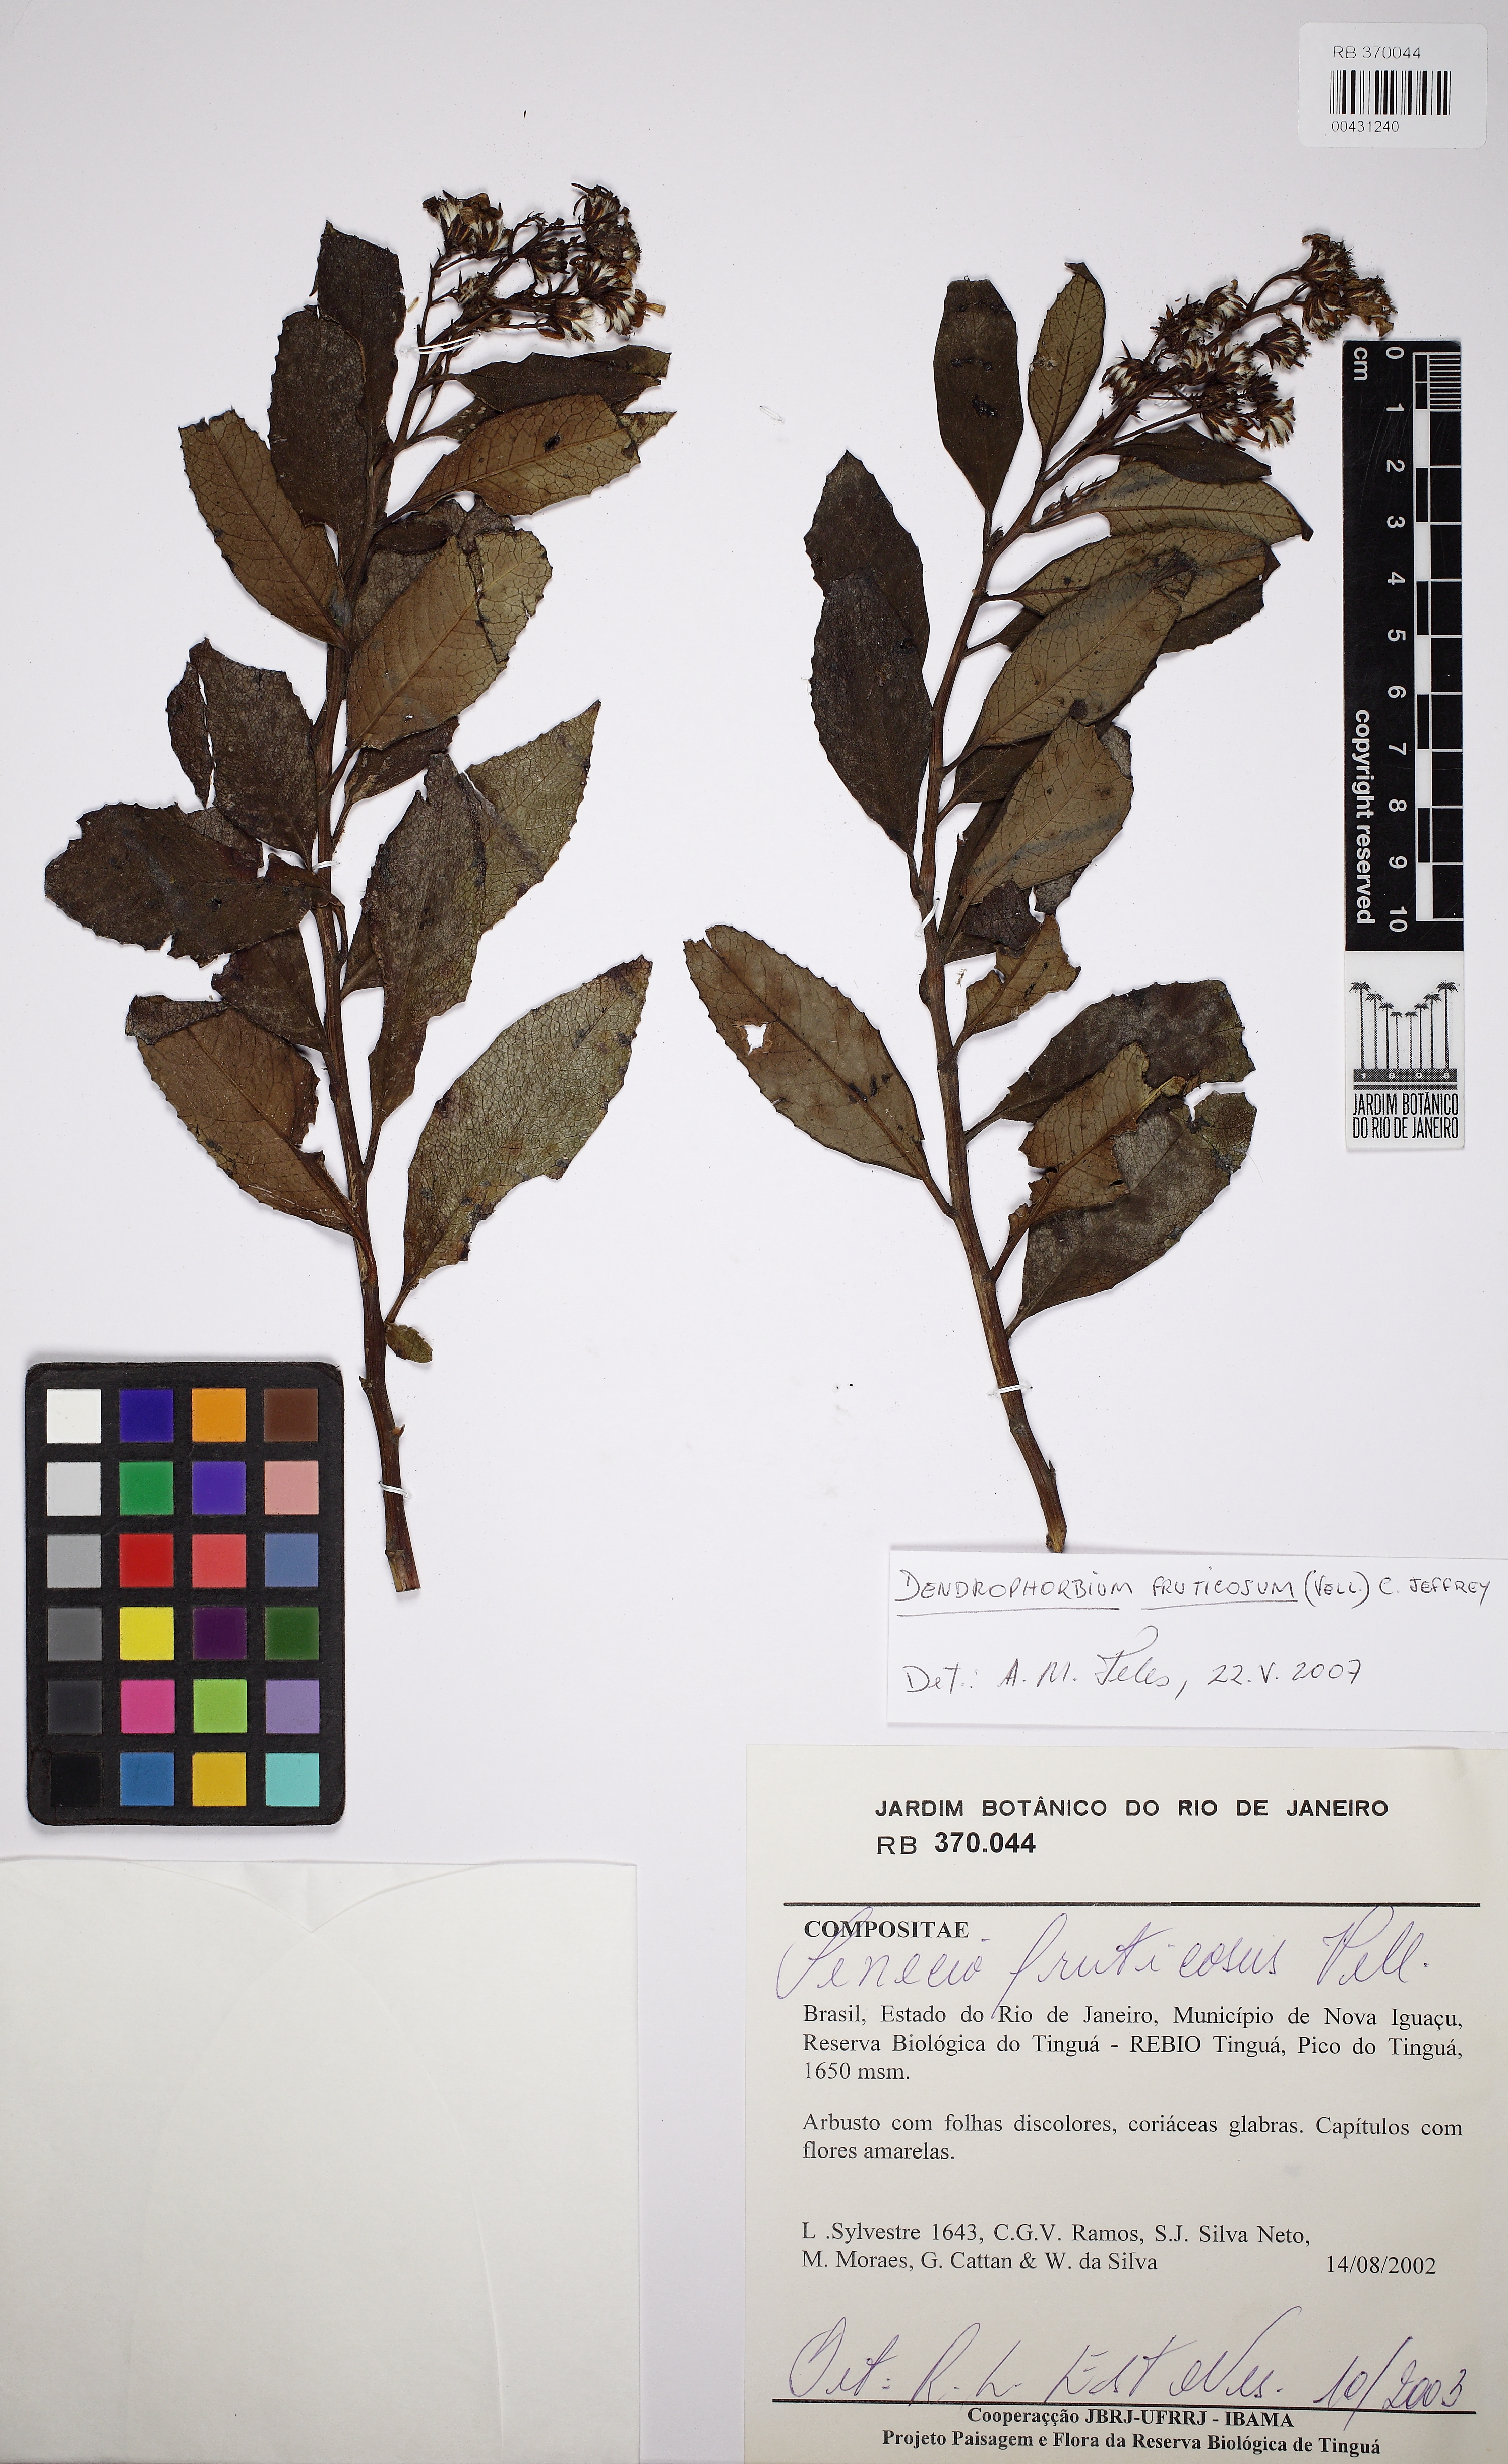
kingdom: Plantae
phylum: Tracheophyta
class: Magnoliopsida
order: Asterales
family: Asteraceae
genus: Dendrophorbium
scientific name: Dendrophorbium pellucidinerve
